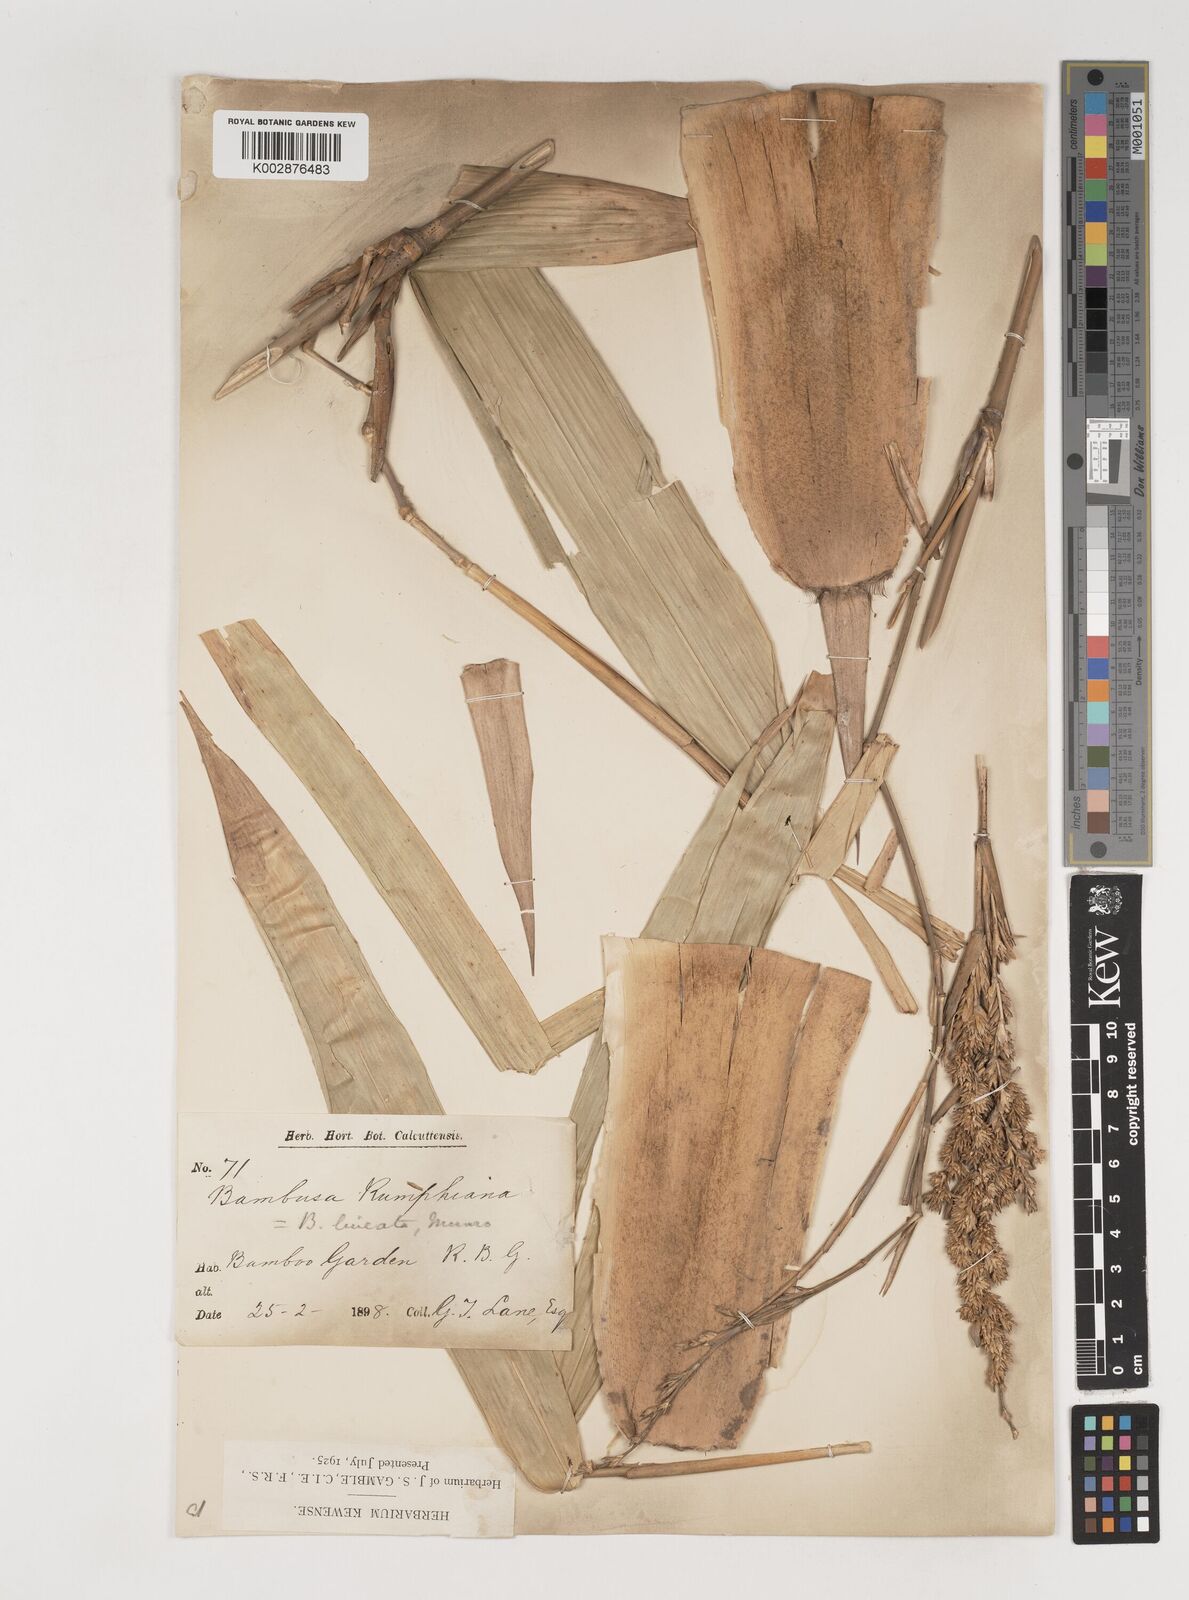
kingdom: Plantae
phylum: Tracheophyta
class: Liliopsida
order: Poales
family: Poaceae
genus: Neololeba
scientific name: Neololeba amahussana
